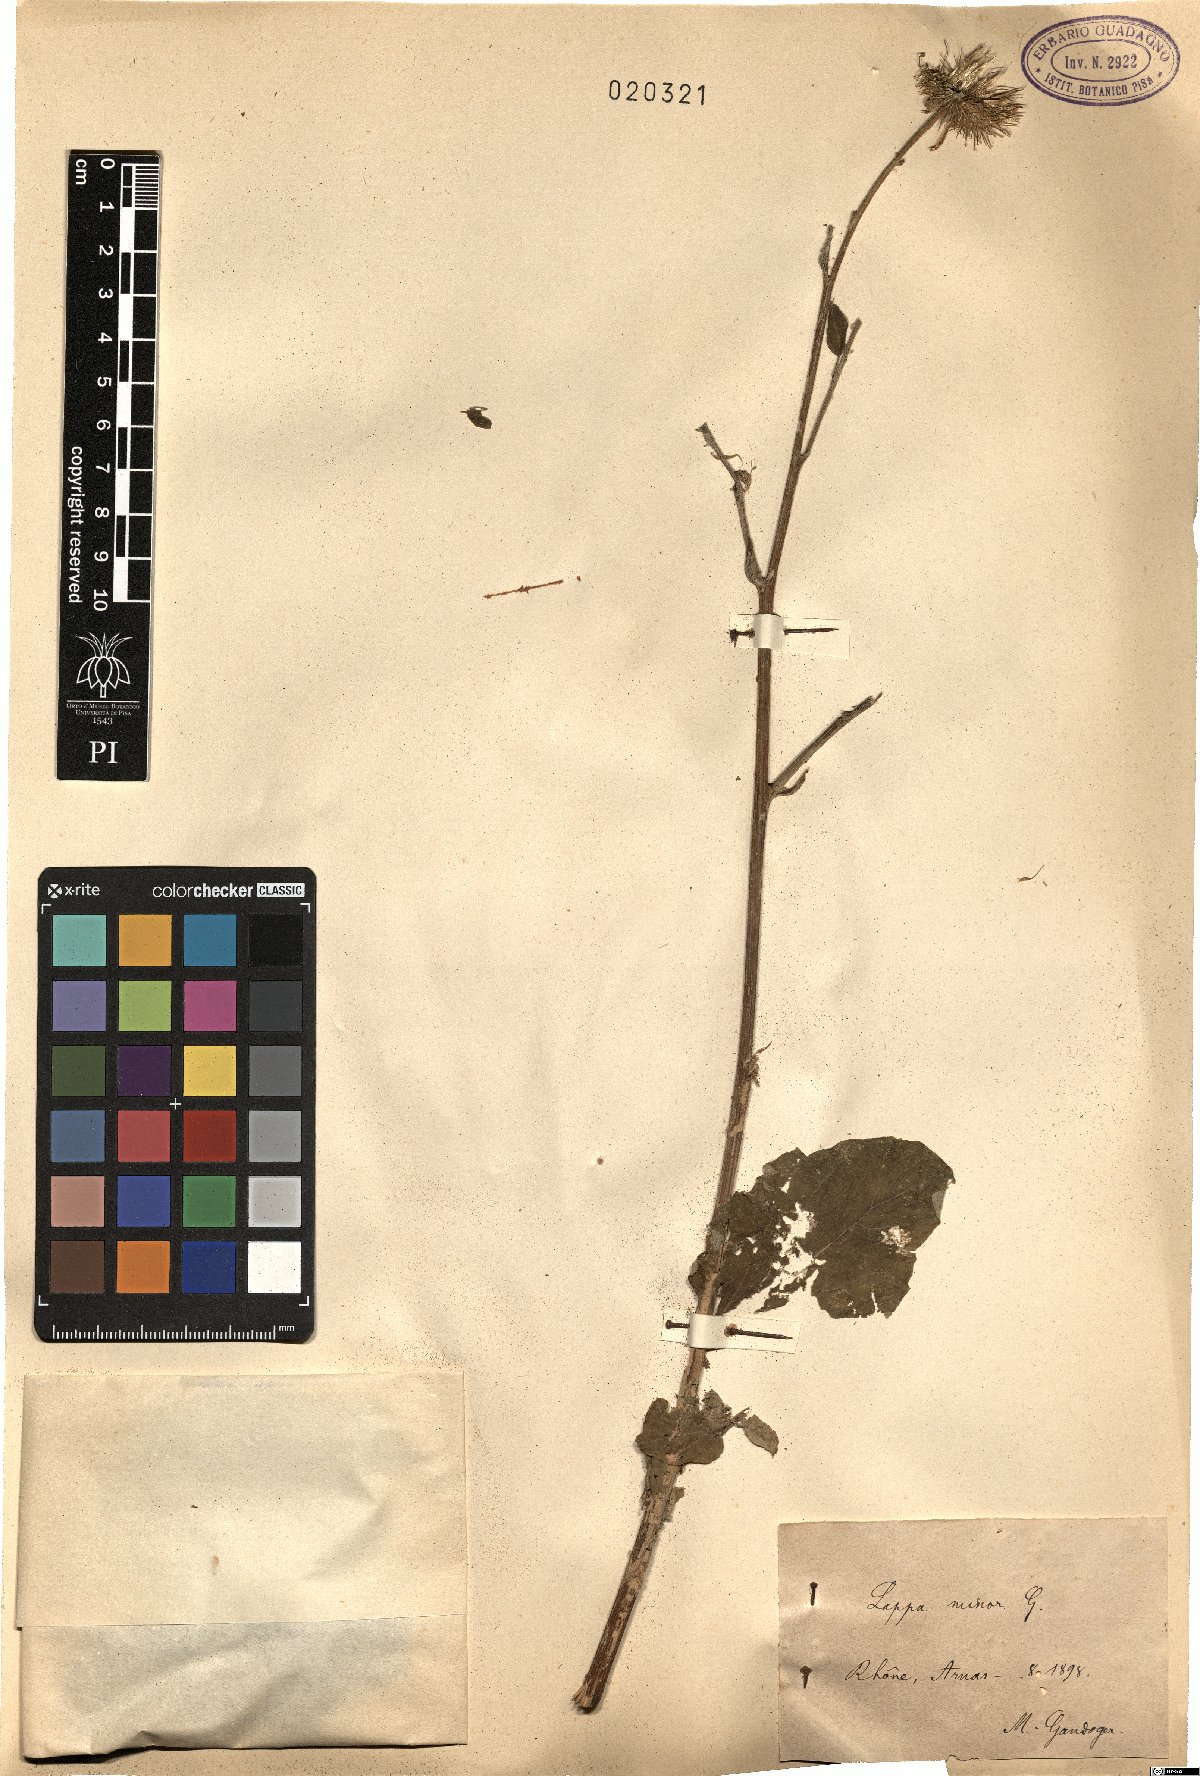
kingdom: Plantae
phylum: Tracheophyta
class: Magnoliopsida
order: Asterales
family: Asteraceae
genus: Arctium
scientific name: Arctium minus
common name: Lesser burdock
